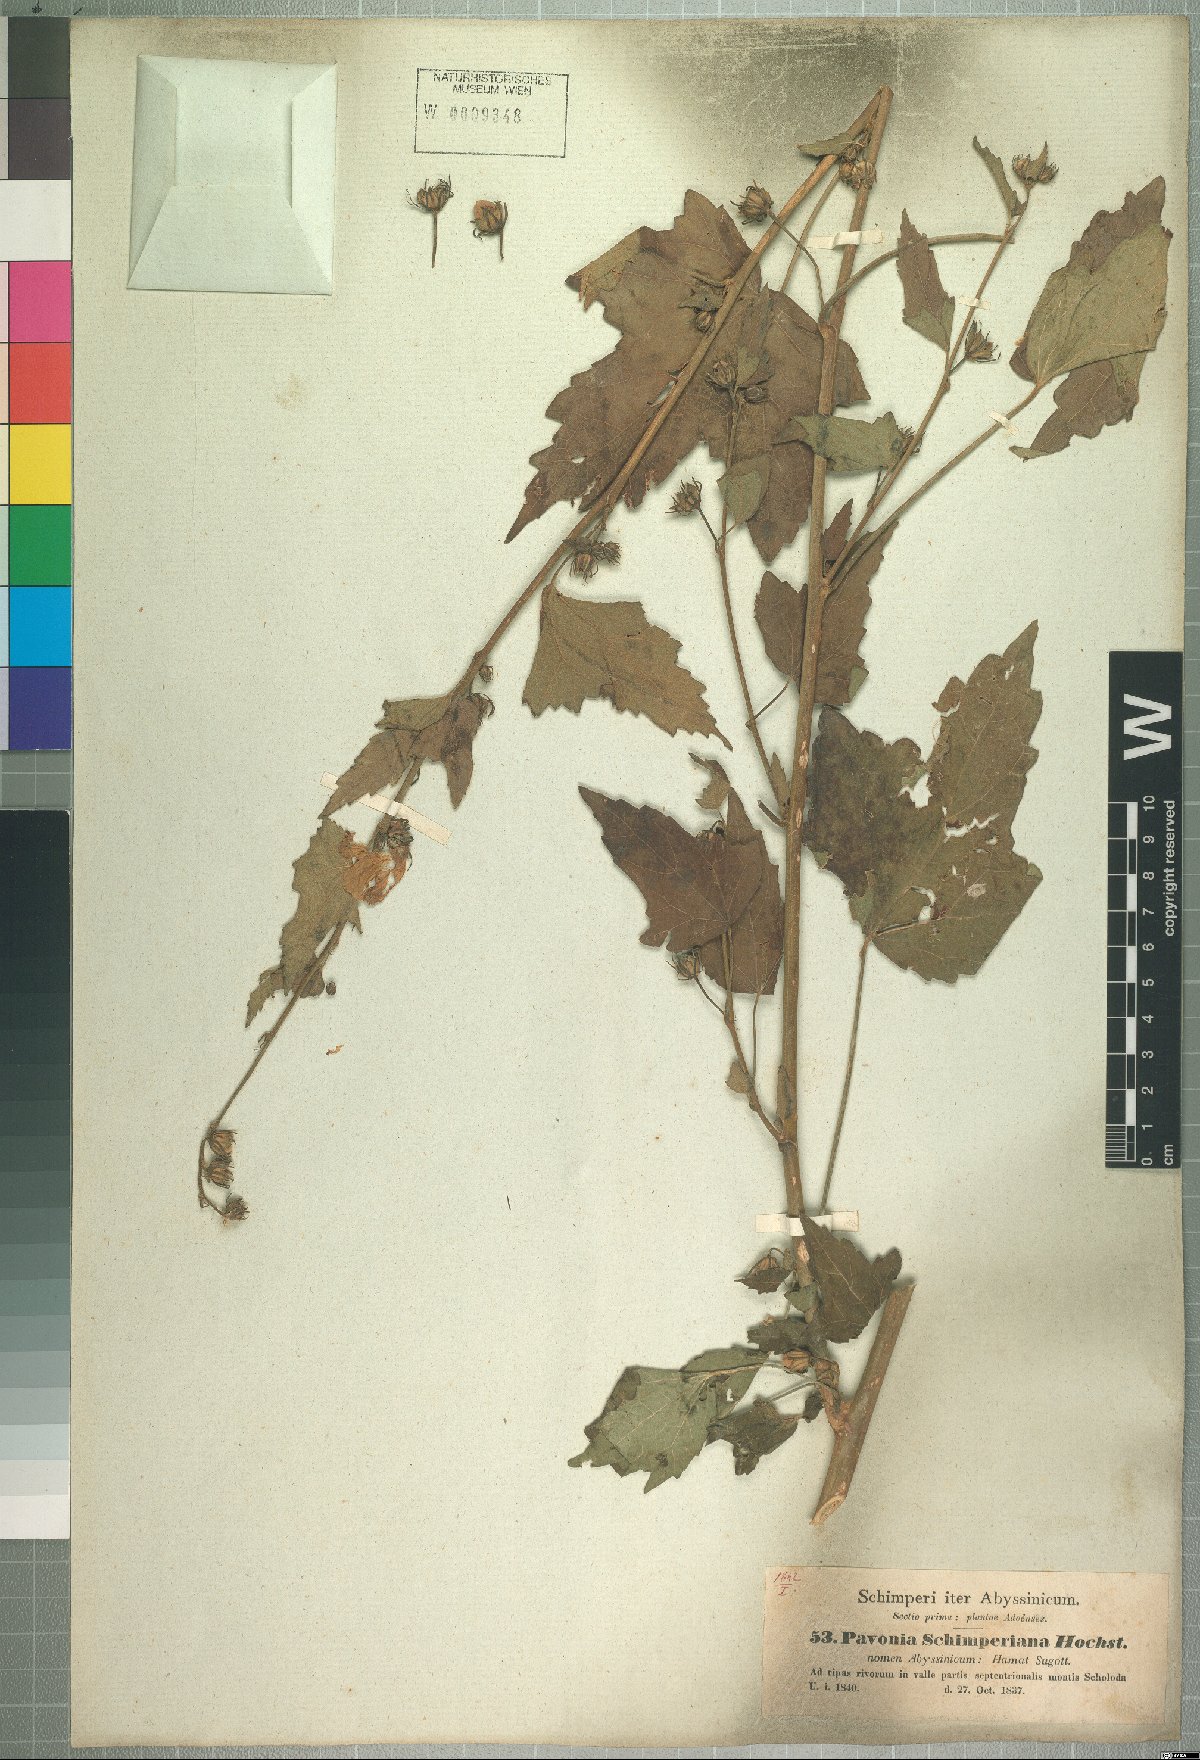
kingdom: Plantae
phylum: Tracheophyta
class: Magnoliopsida
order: Malvales
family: Malvaceae
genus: Pavonia
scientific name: Pavonia schimperiana
